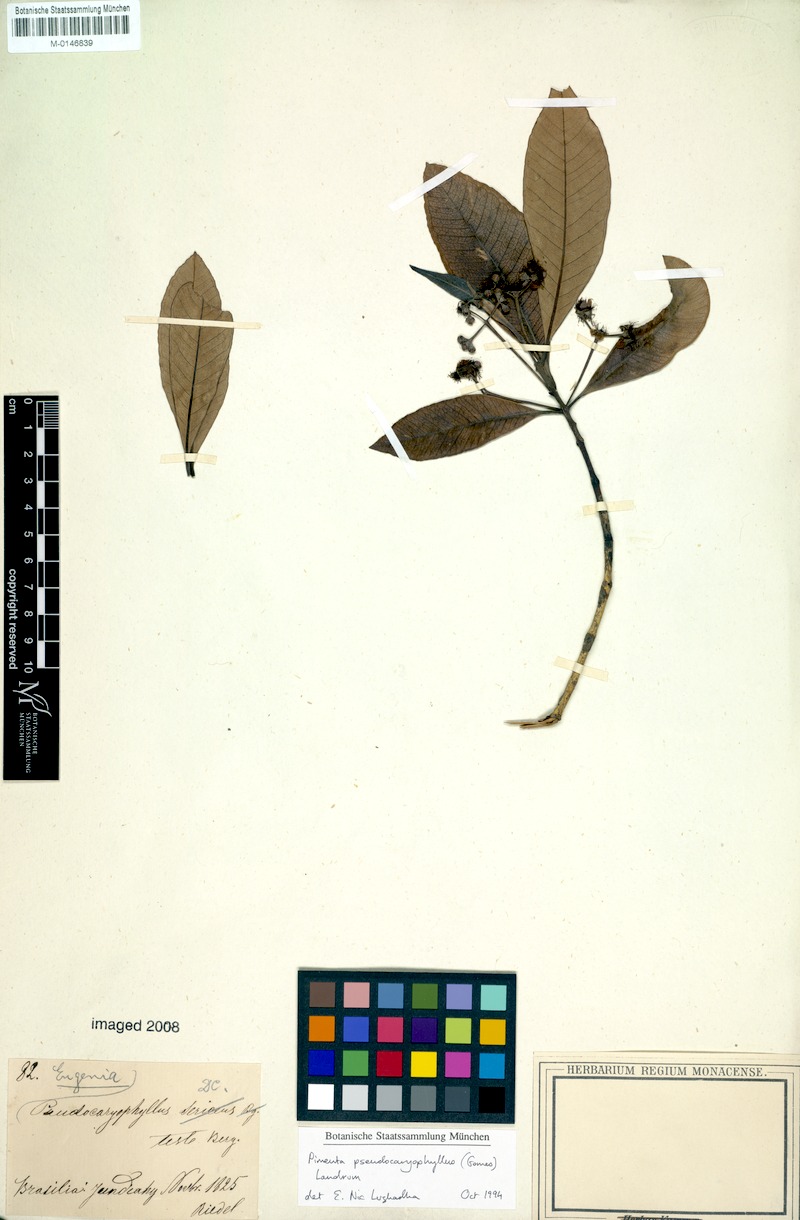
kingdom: Plantae
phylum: Tracheophyta
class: Magnoliopsida
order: Myrtales
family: Myrtaceae
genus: Pimenta
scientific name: Pimenta pseudocaryophyllus
